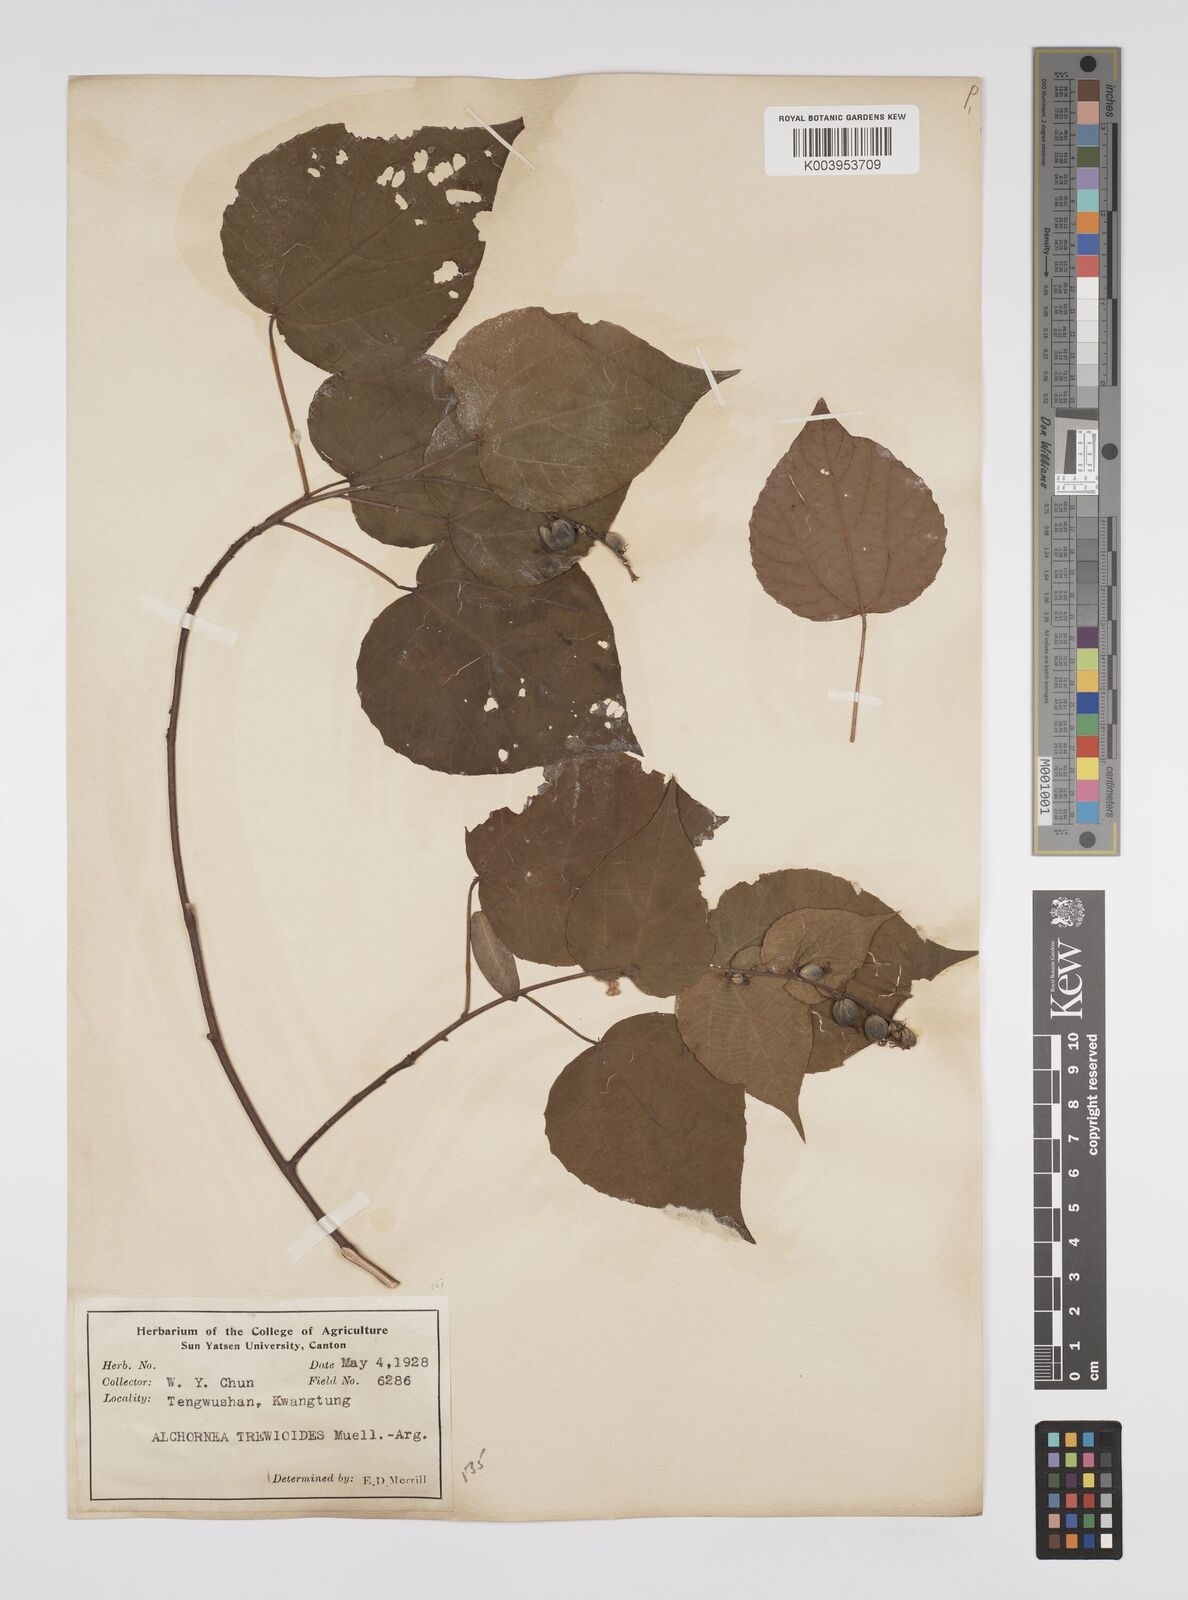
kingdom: Plantae
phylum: Tracheophyta
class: Magnoliopsida
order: Malpighiales
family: Euphorbiaceae
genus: Alchornea
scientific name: Alchornea trewioides
